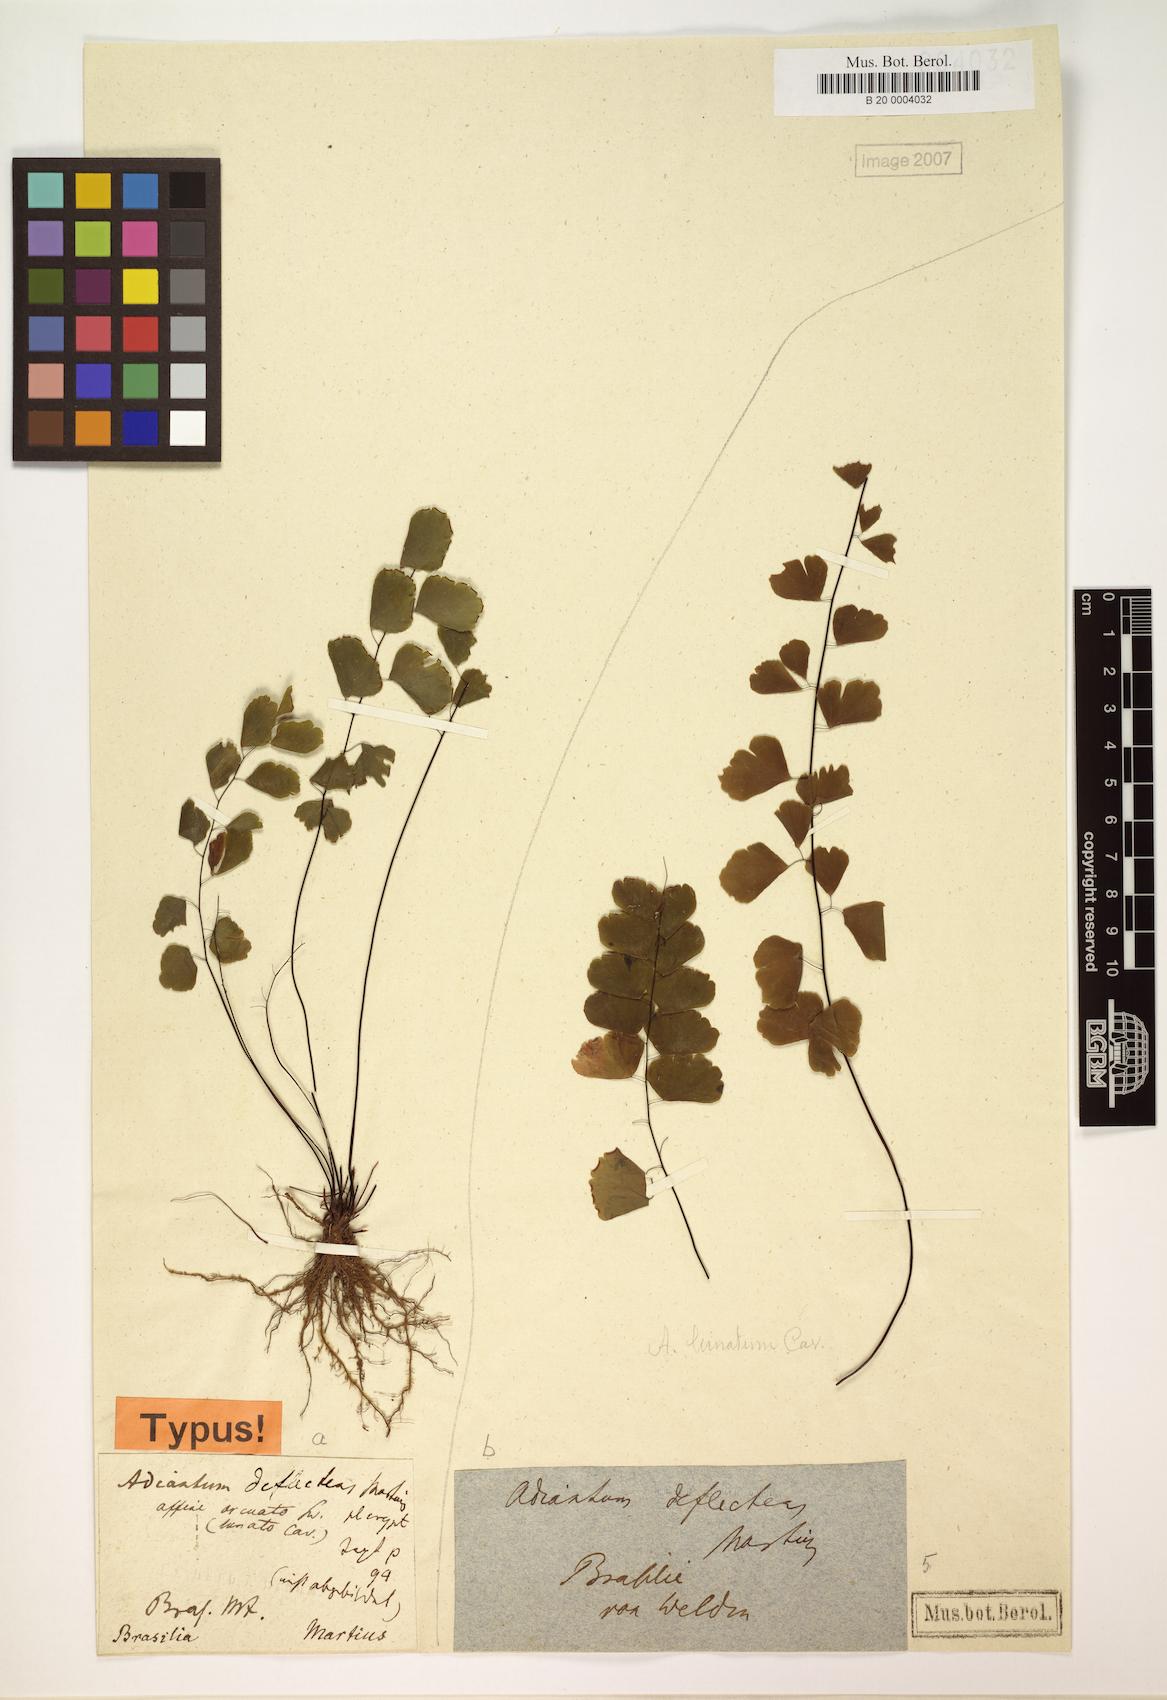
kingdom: Plantae
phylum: Tracheophyta
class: Polypodiopsida
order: Polypodiales
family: Pteridaceae
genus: Adiantum
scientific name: Adiantum deflectens
